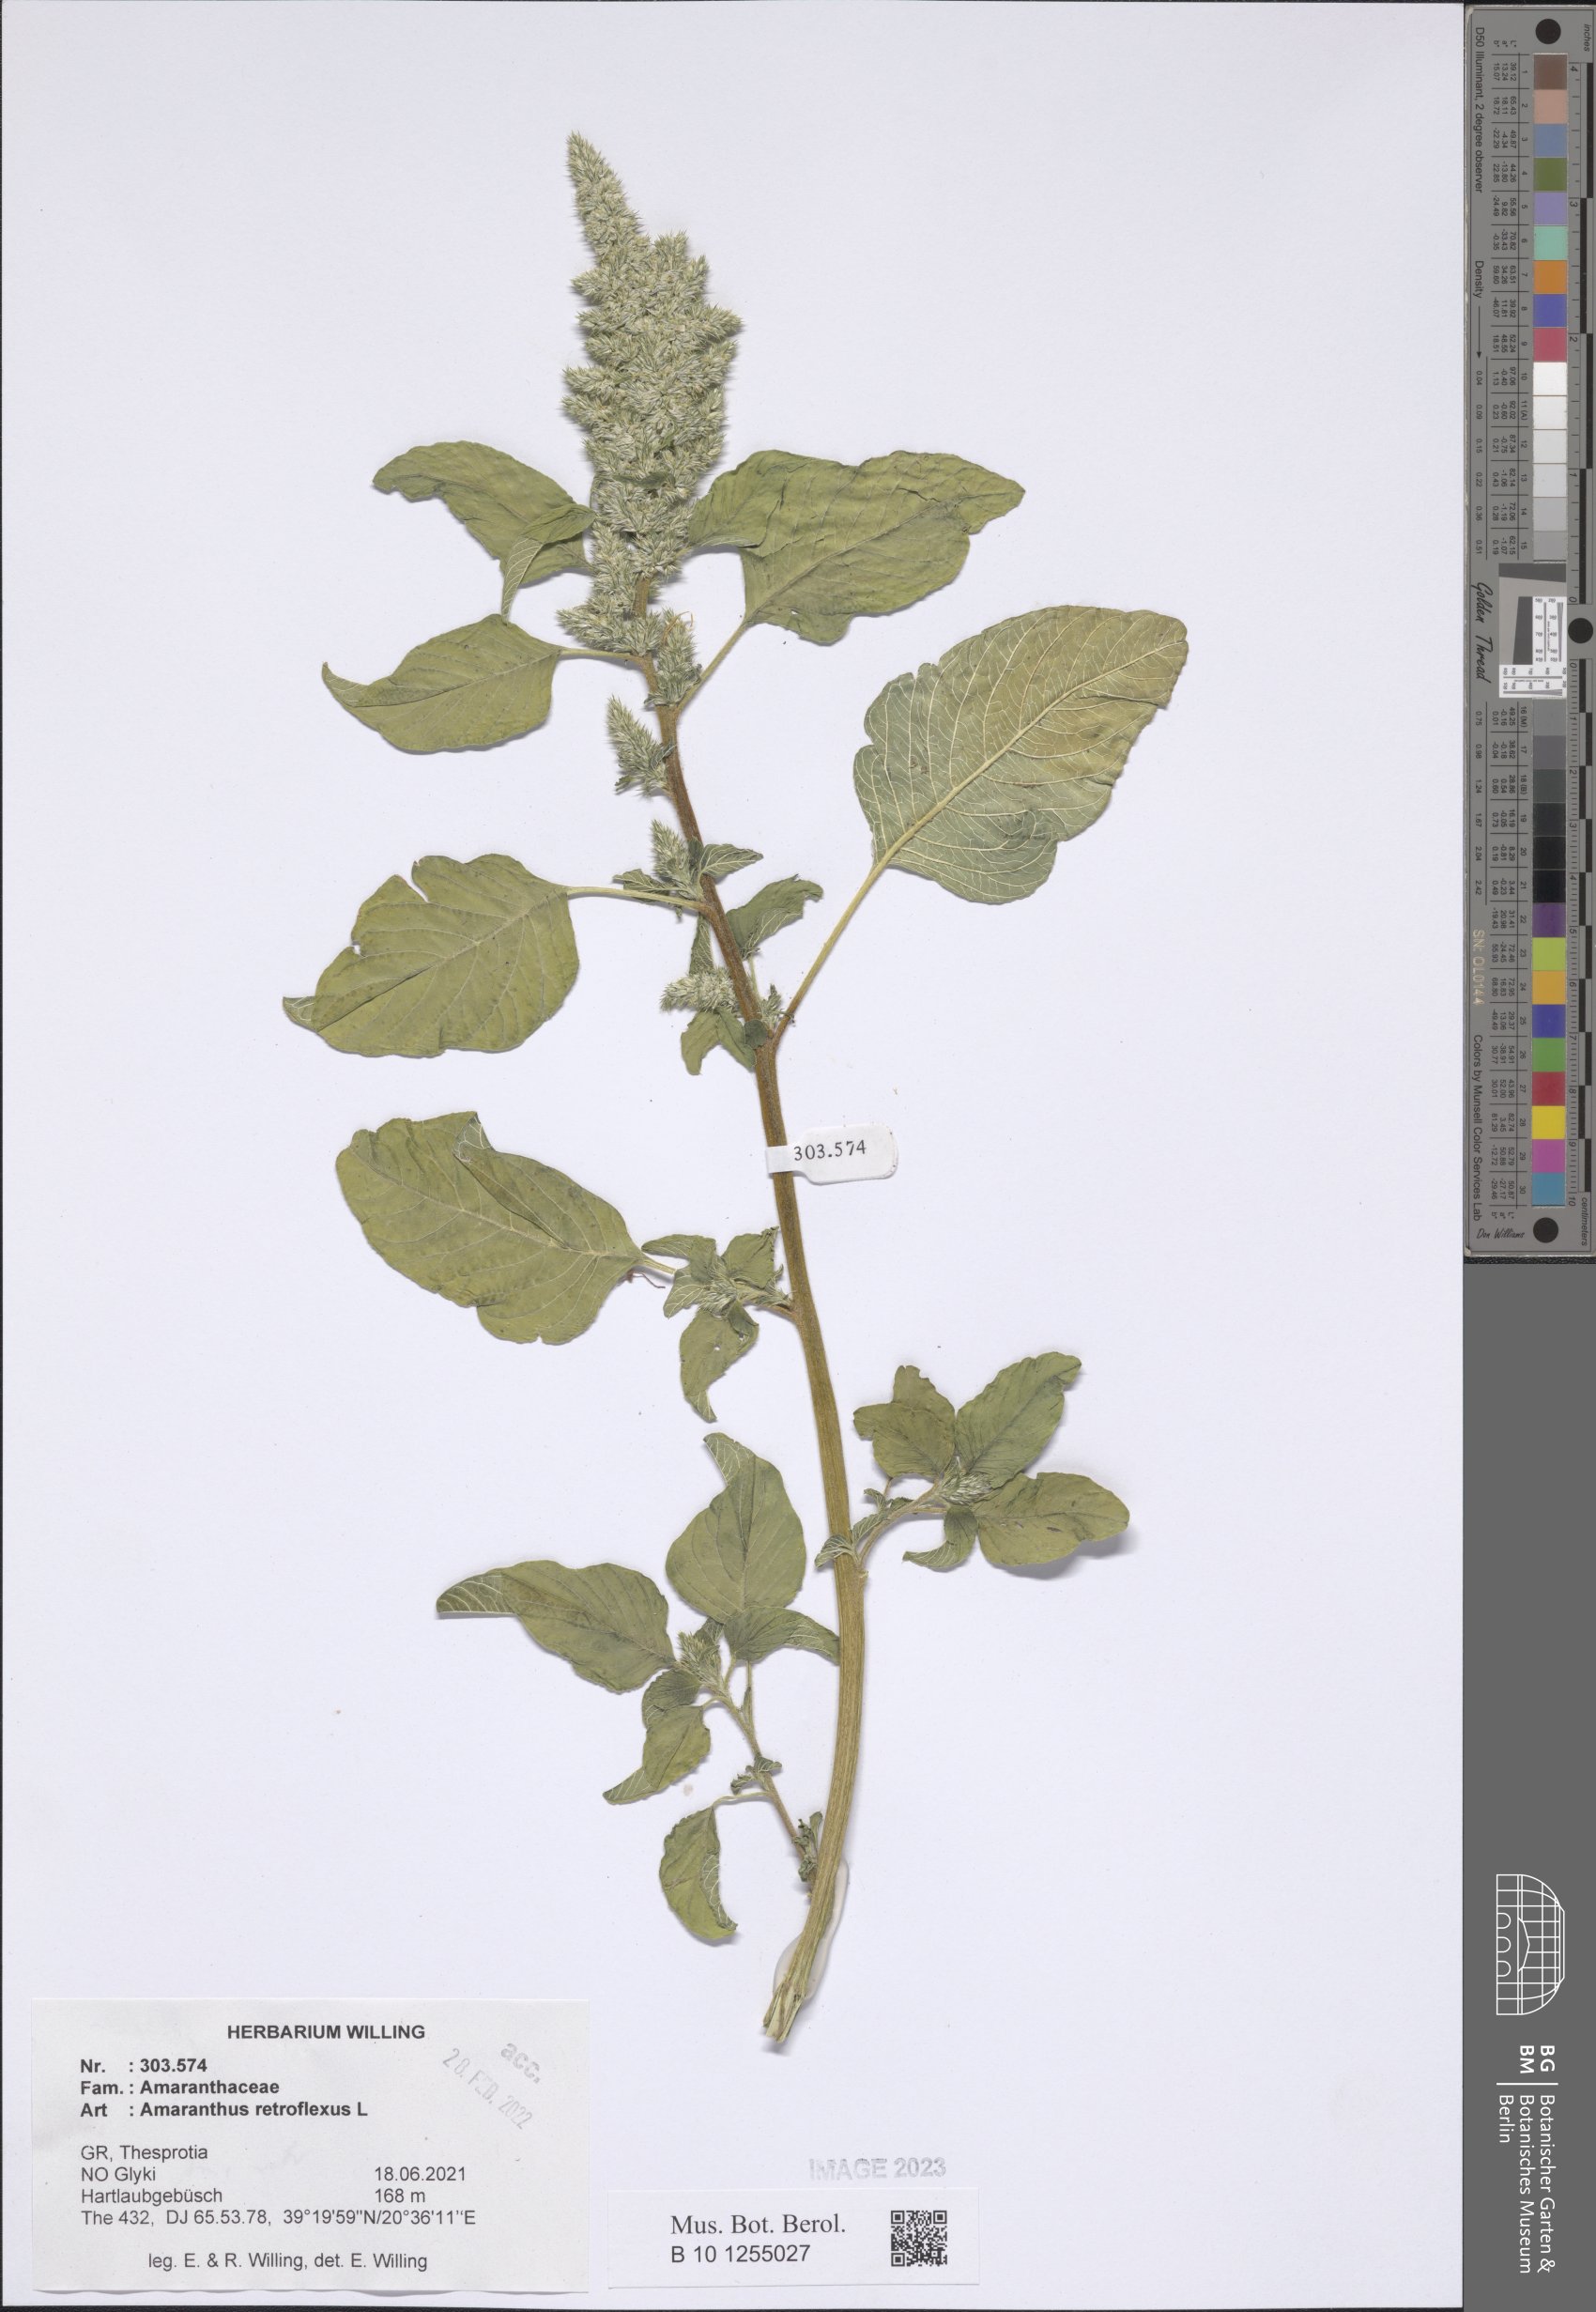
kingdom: Plantae
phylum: Tracheophyta
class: Magnoliopsida
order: Caryophyllales
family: Amaranthaceae
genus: Amaranthus
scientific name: Amaranthus retroflexus
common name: Redroot amaranth
